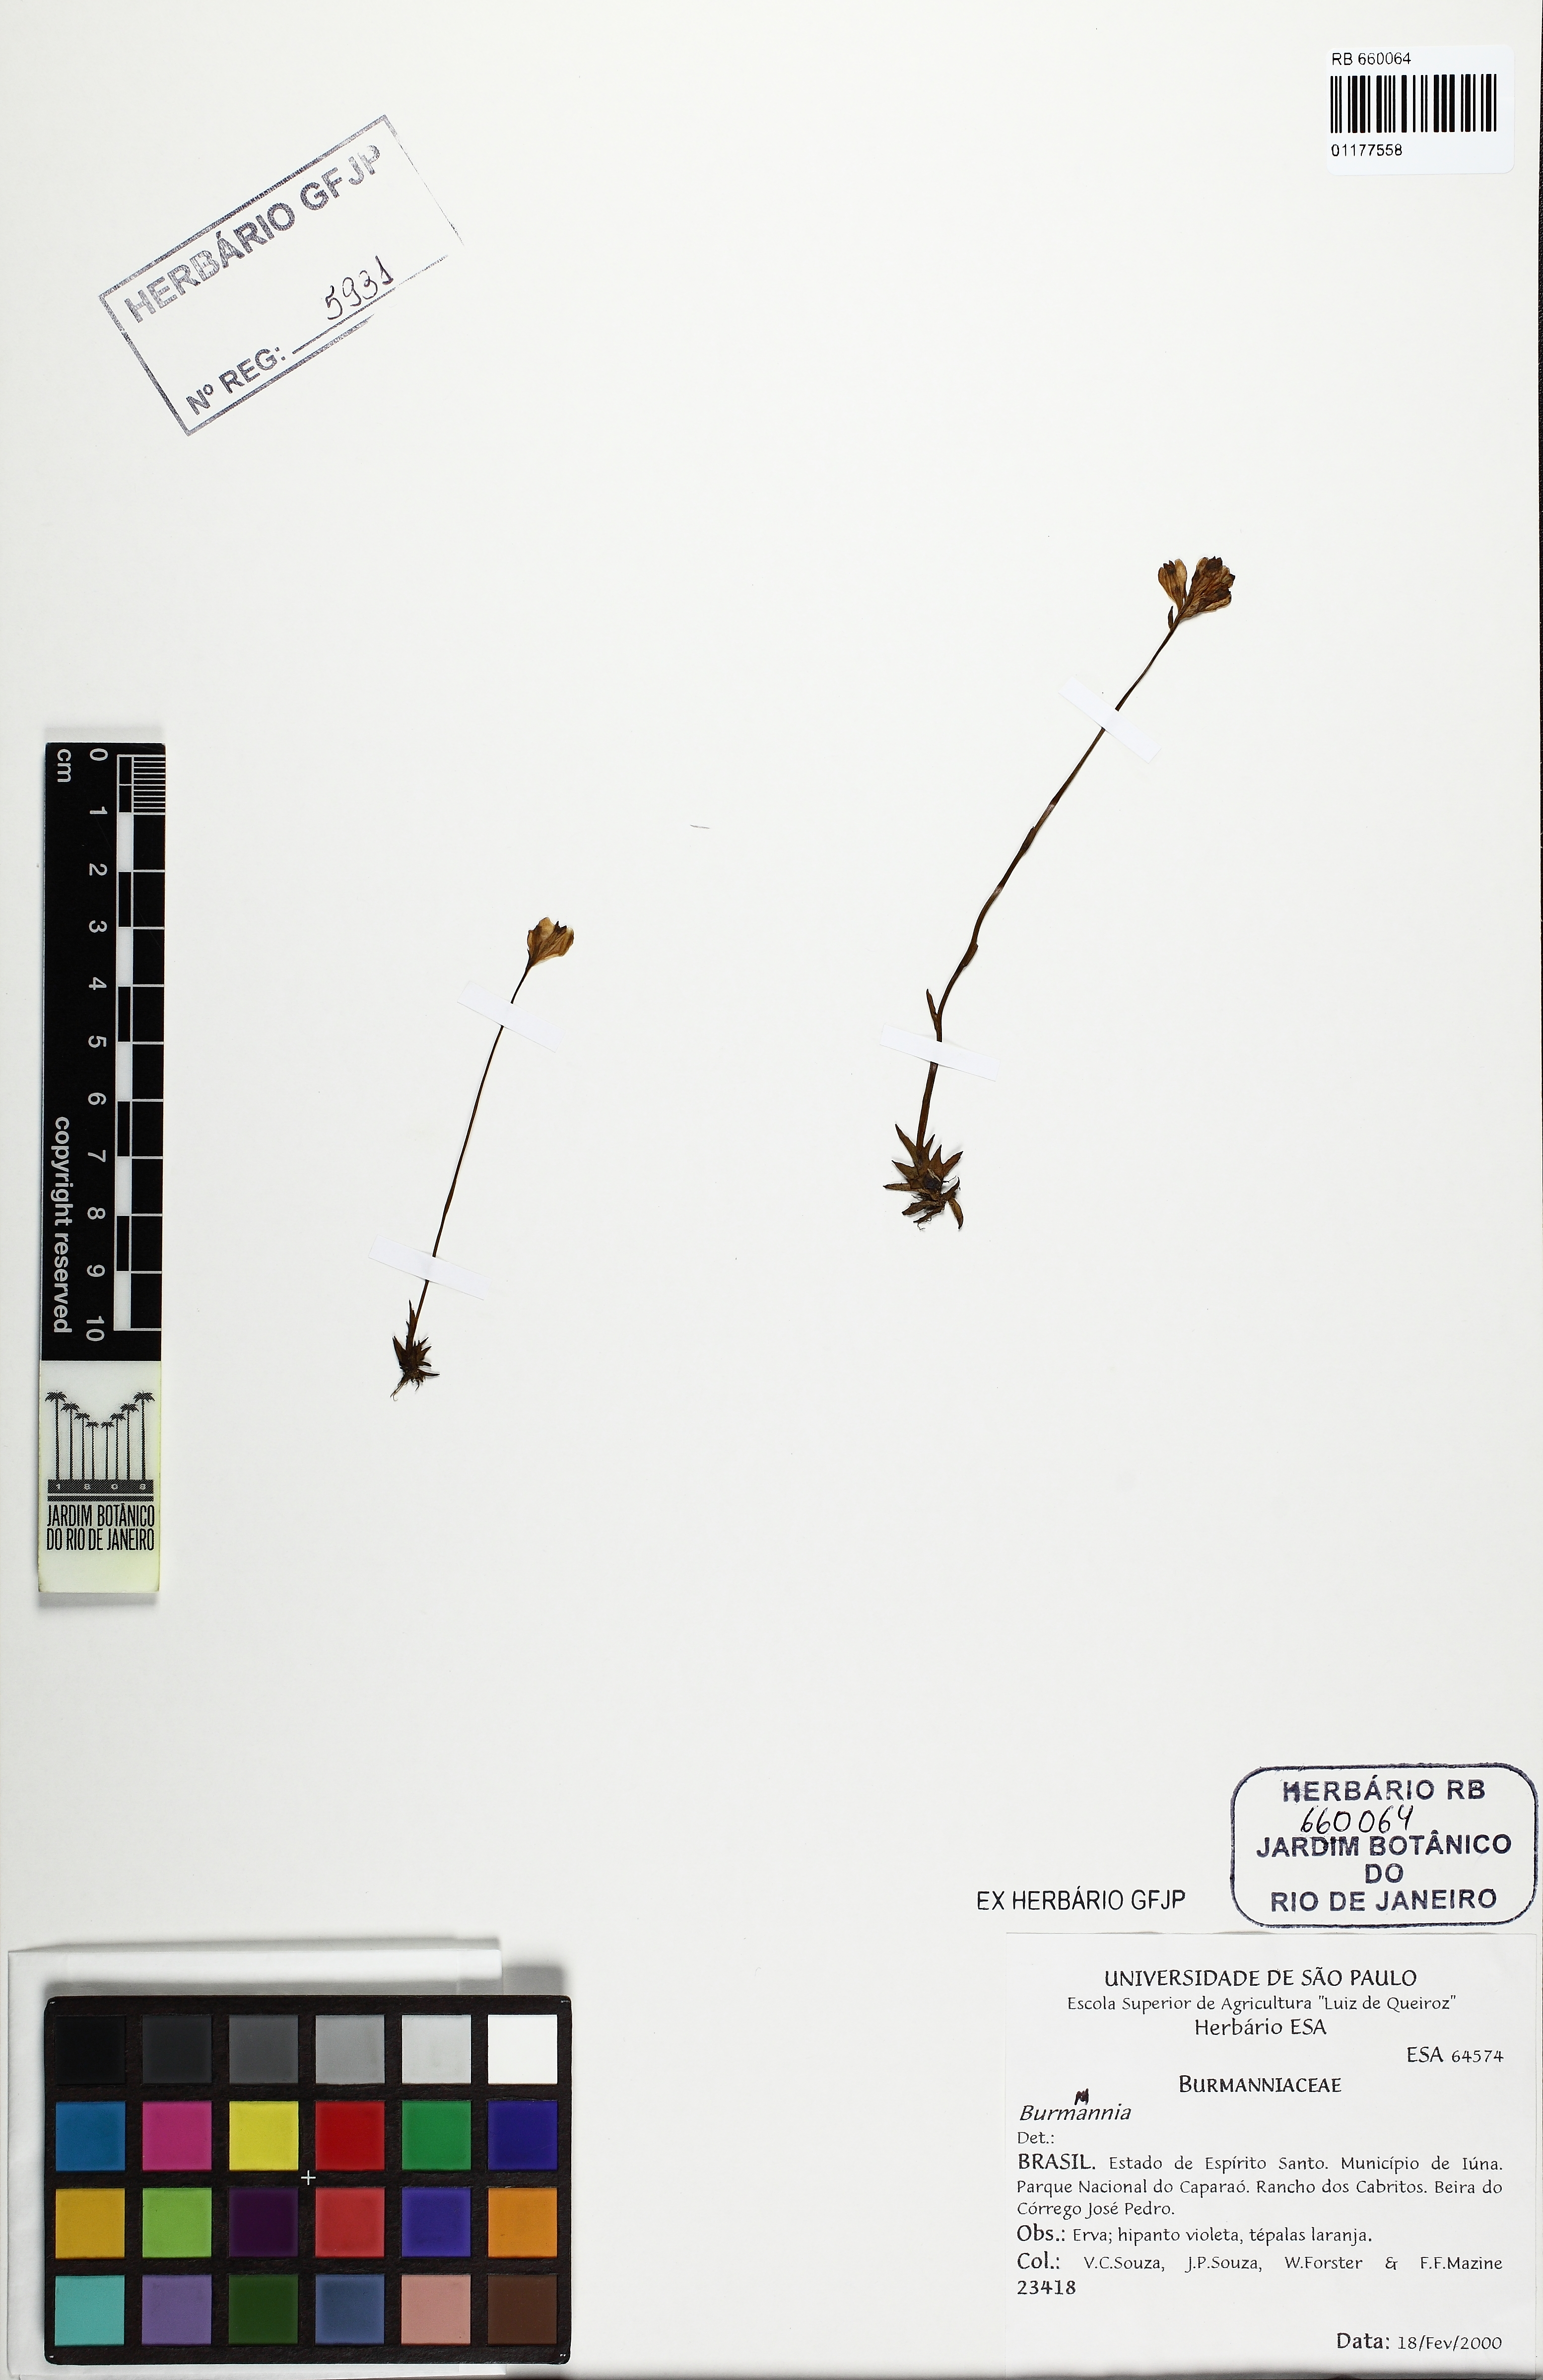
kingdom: Plantae
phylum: Tracheophyta
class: Liliopsida
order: Dioscoreales
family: Burmanniaceae
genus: Burmannia
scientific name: Burmannia
